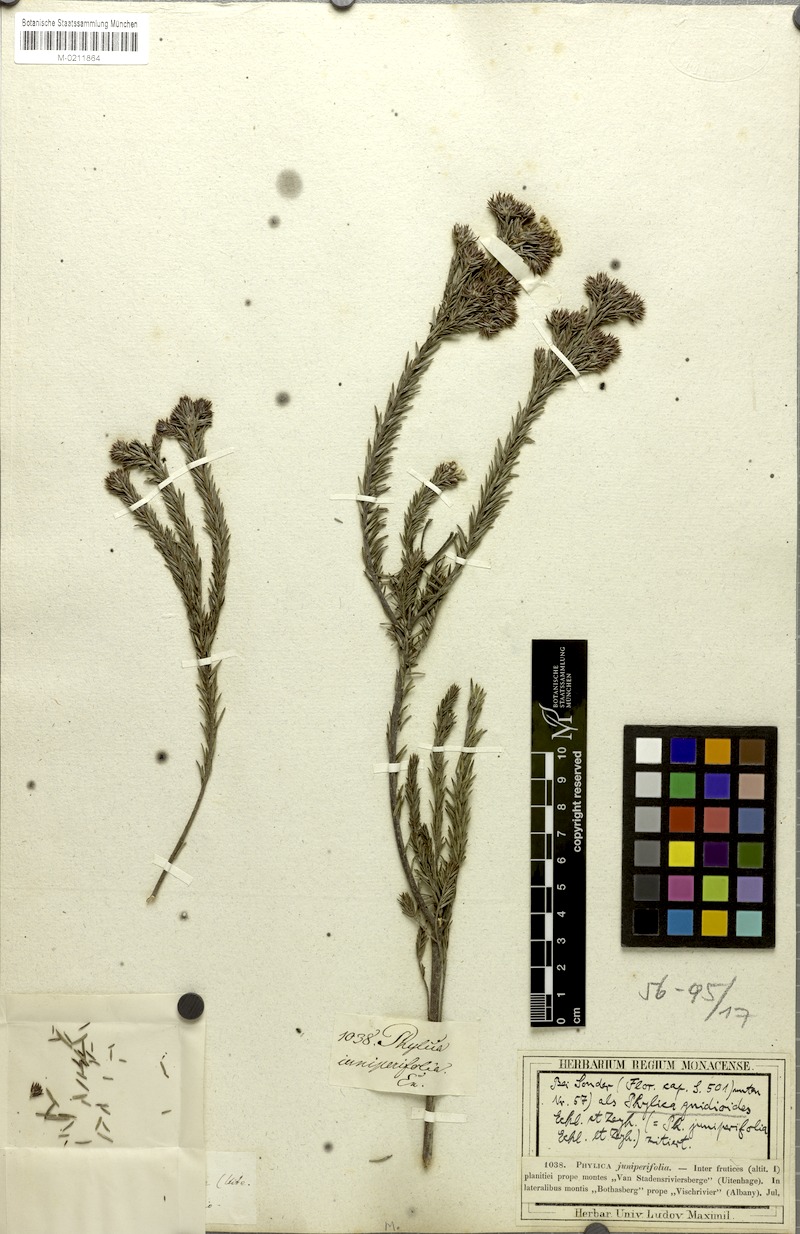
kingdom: Plantae
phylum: Tracheophyta
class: Magnoliopsida
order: Rosales
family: Rhamnaceae
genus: Phylica
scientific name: Phylica gnidioides
